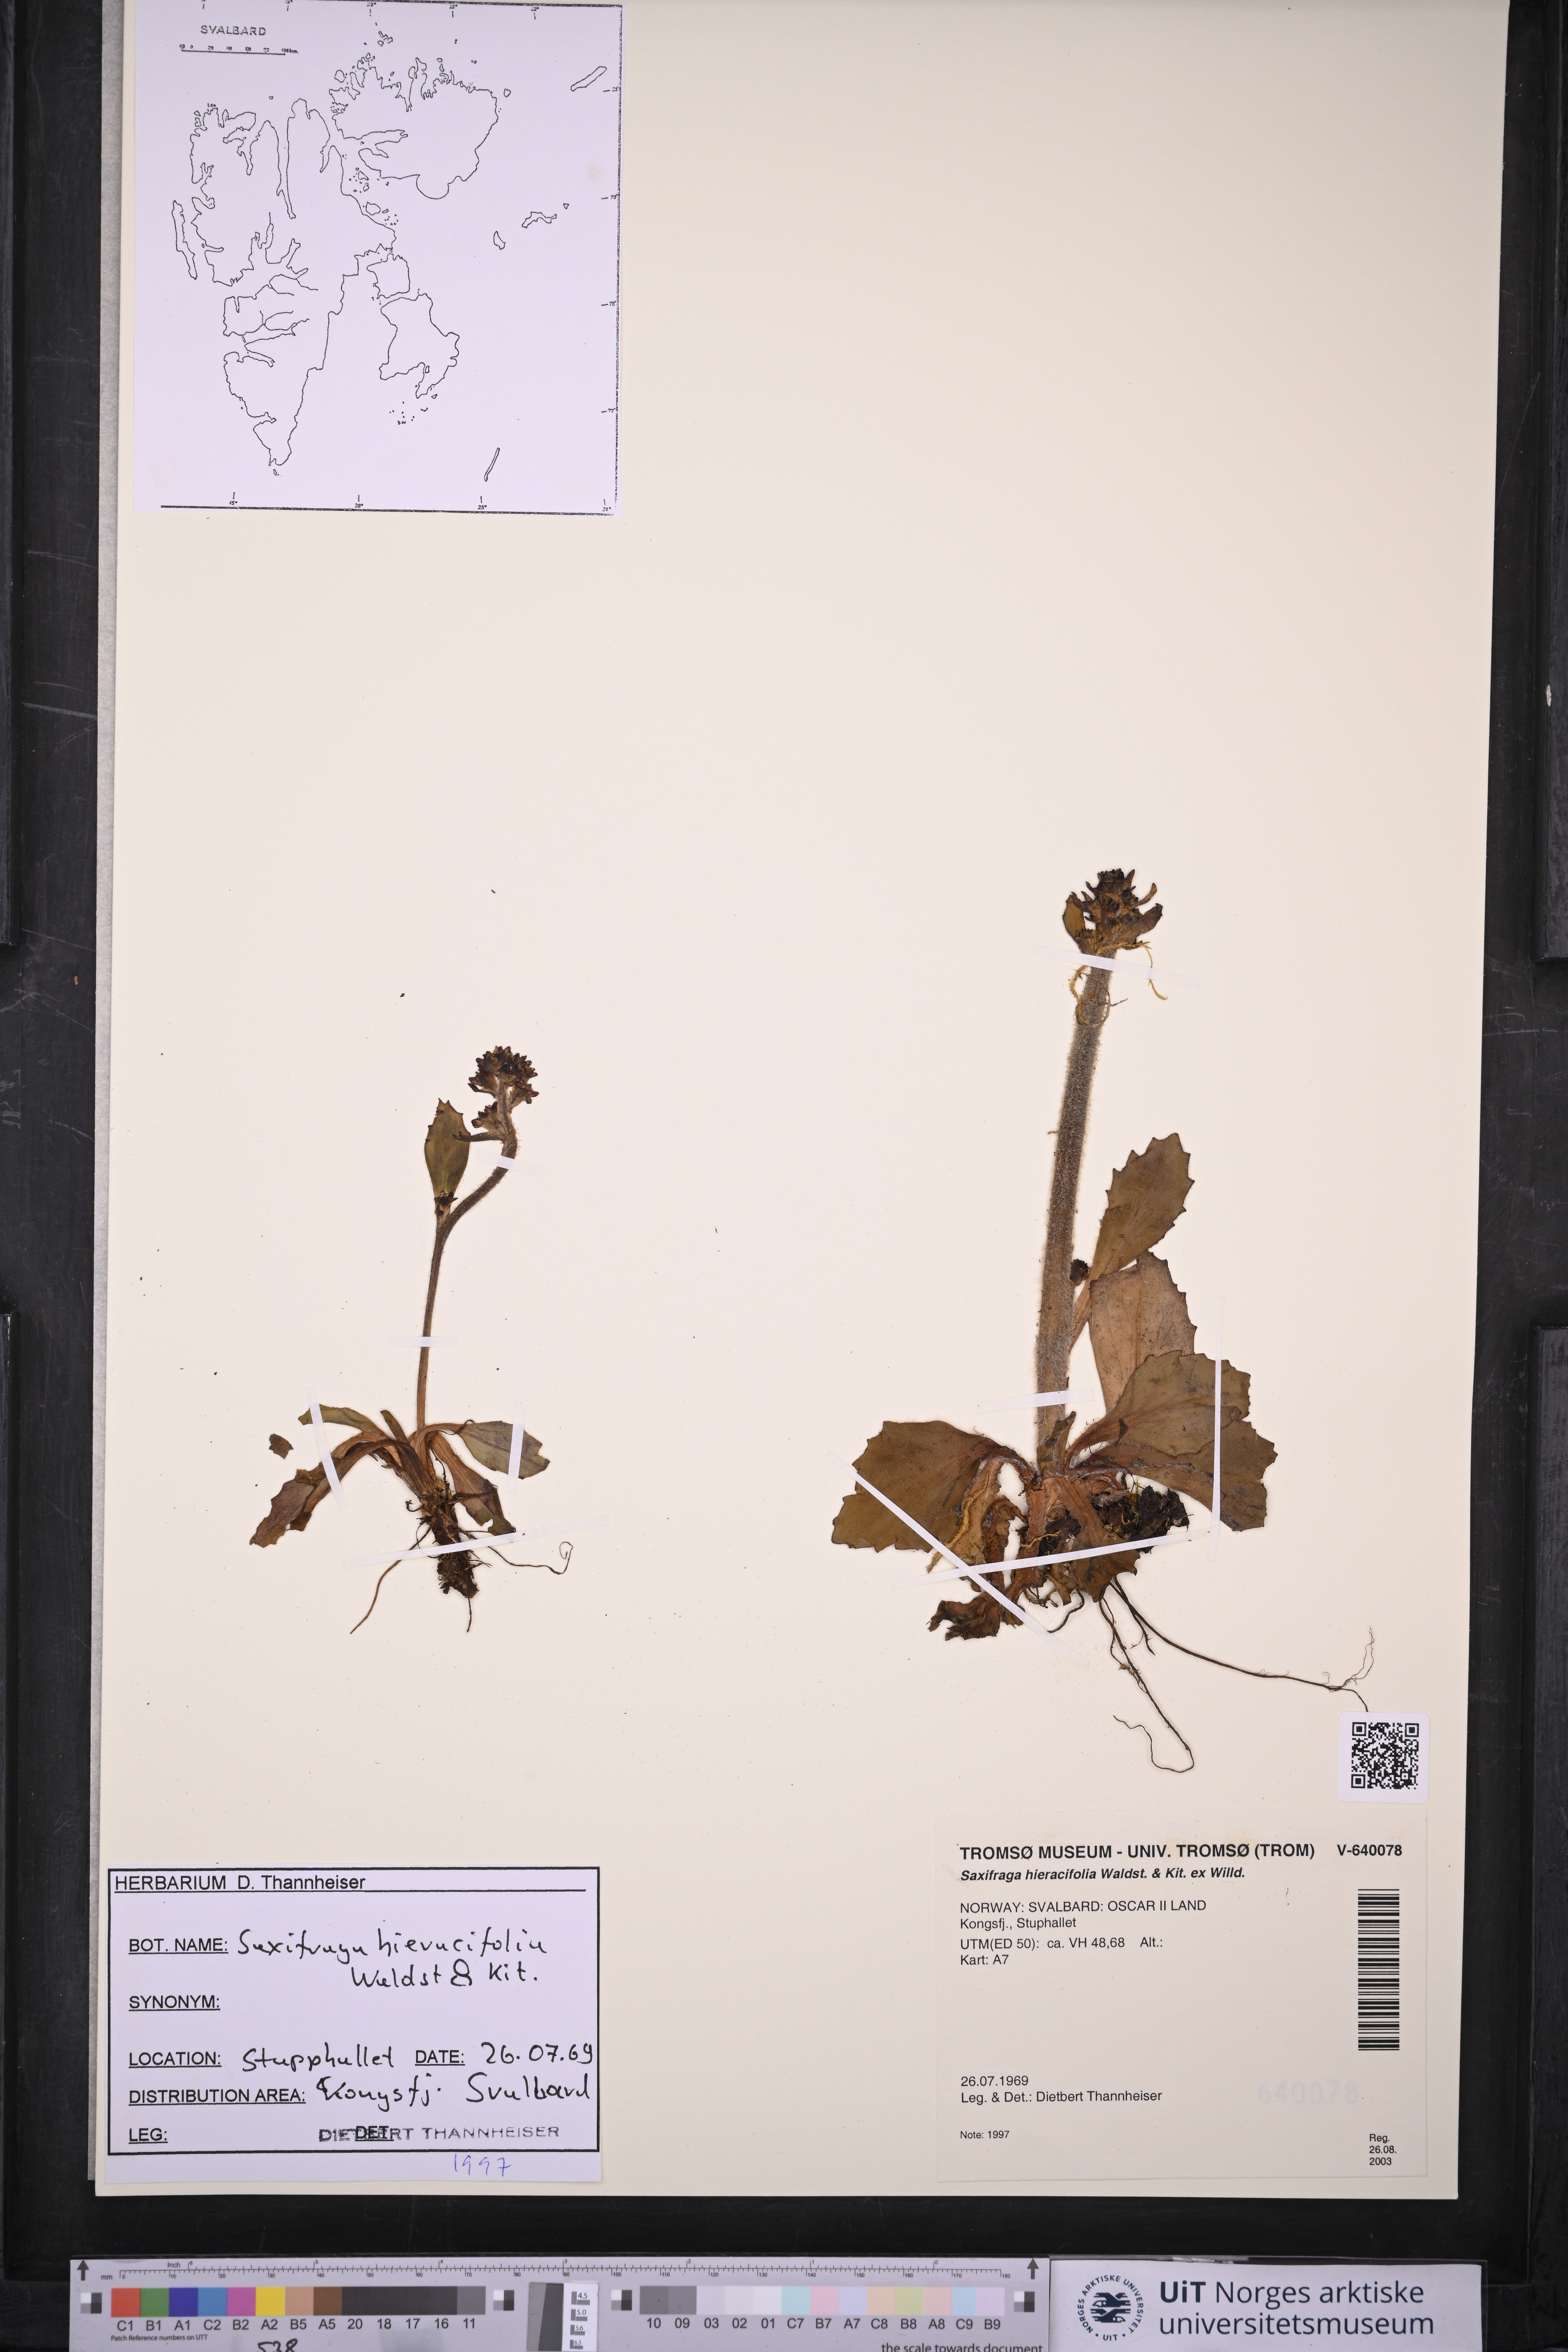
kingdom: Plantae
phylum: Tracheophyta
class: Magnoliopsida
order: Saxifragales
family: Saxifragaceae
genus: Micranthes
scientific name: Micranthes hieraciifolia
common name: Hawkweed-leaved saxifrage
